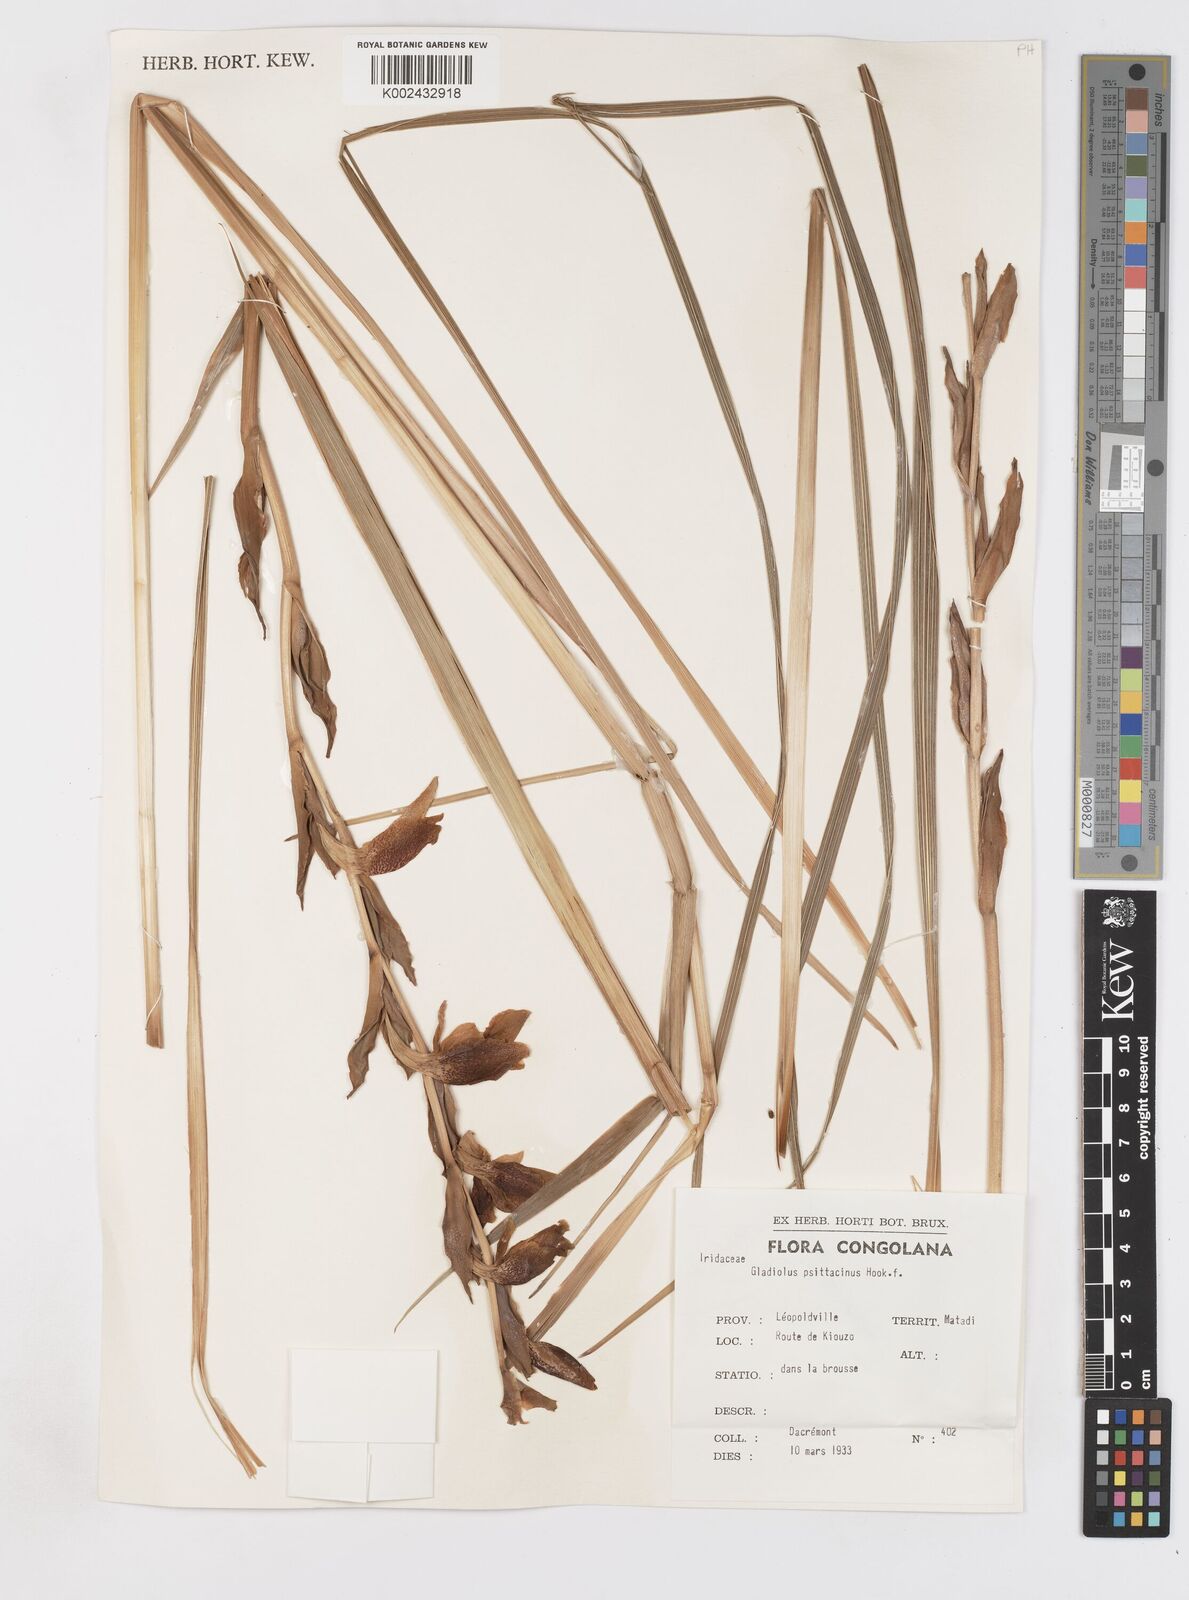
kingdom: Plantae
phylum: Tracheophyta
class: Liliopsida
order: Asparagales
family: Iridaceae
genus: Gladiolus
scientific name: Gladiolus dalenii
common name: Cornflag
